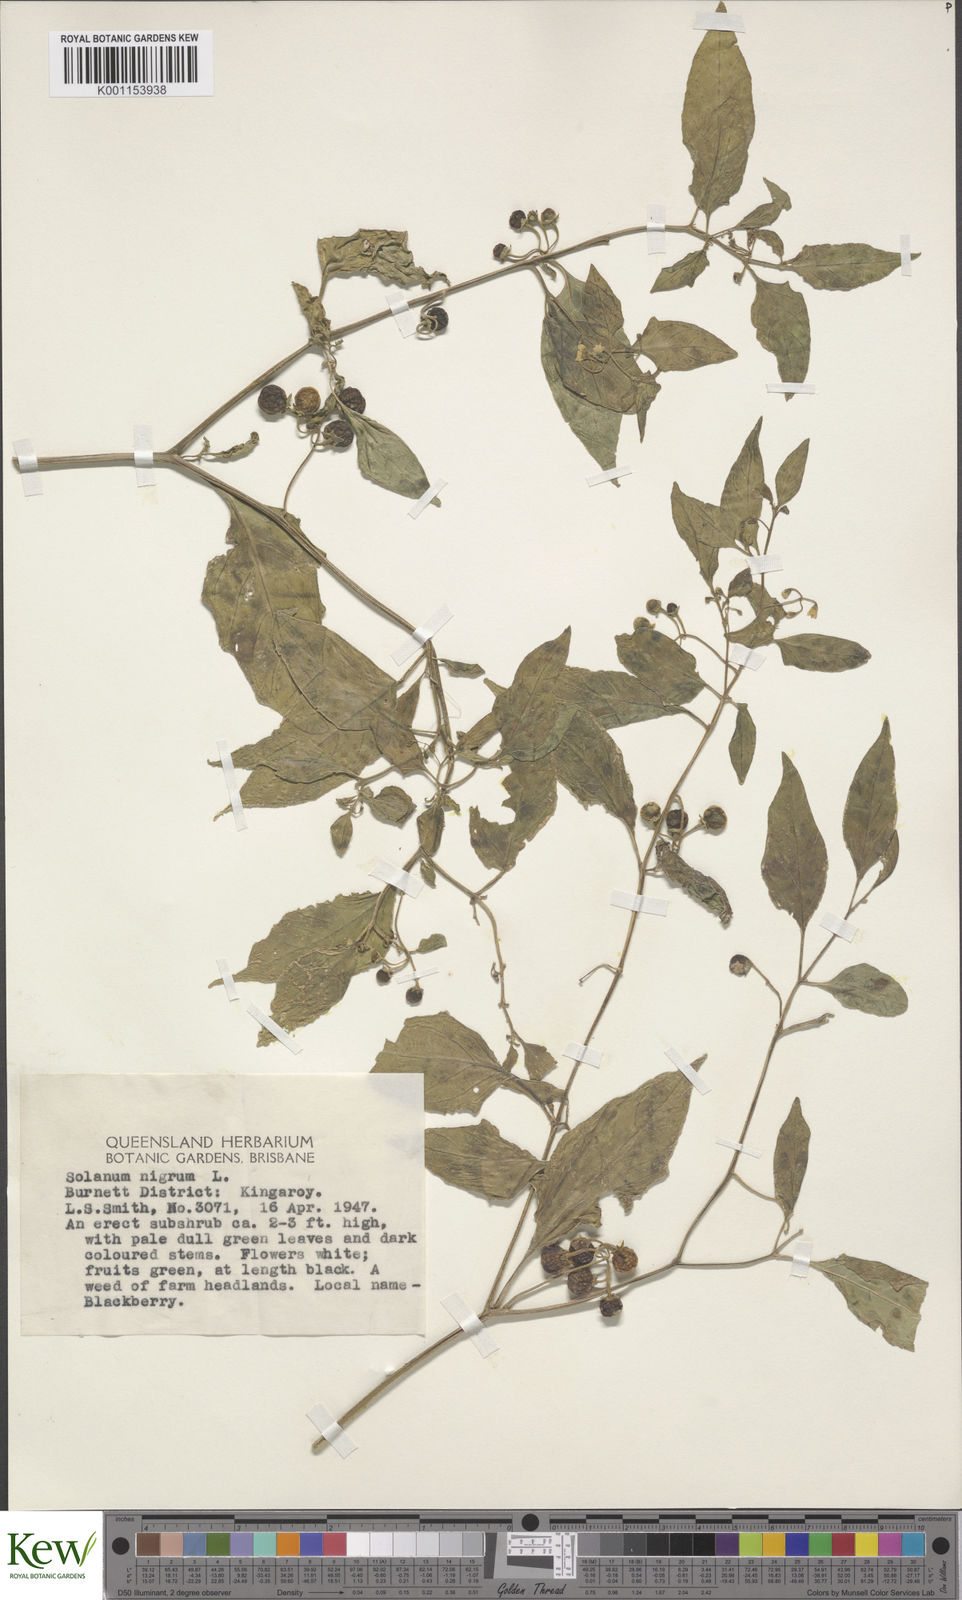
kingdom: Plantae
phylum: Tracheophyta
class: Magnoliopsida
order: Solanales
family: Solanaceae
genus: Solanum
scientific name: Solanum nigrum
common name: Black nightshade
